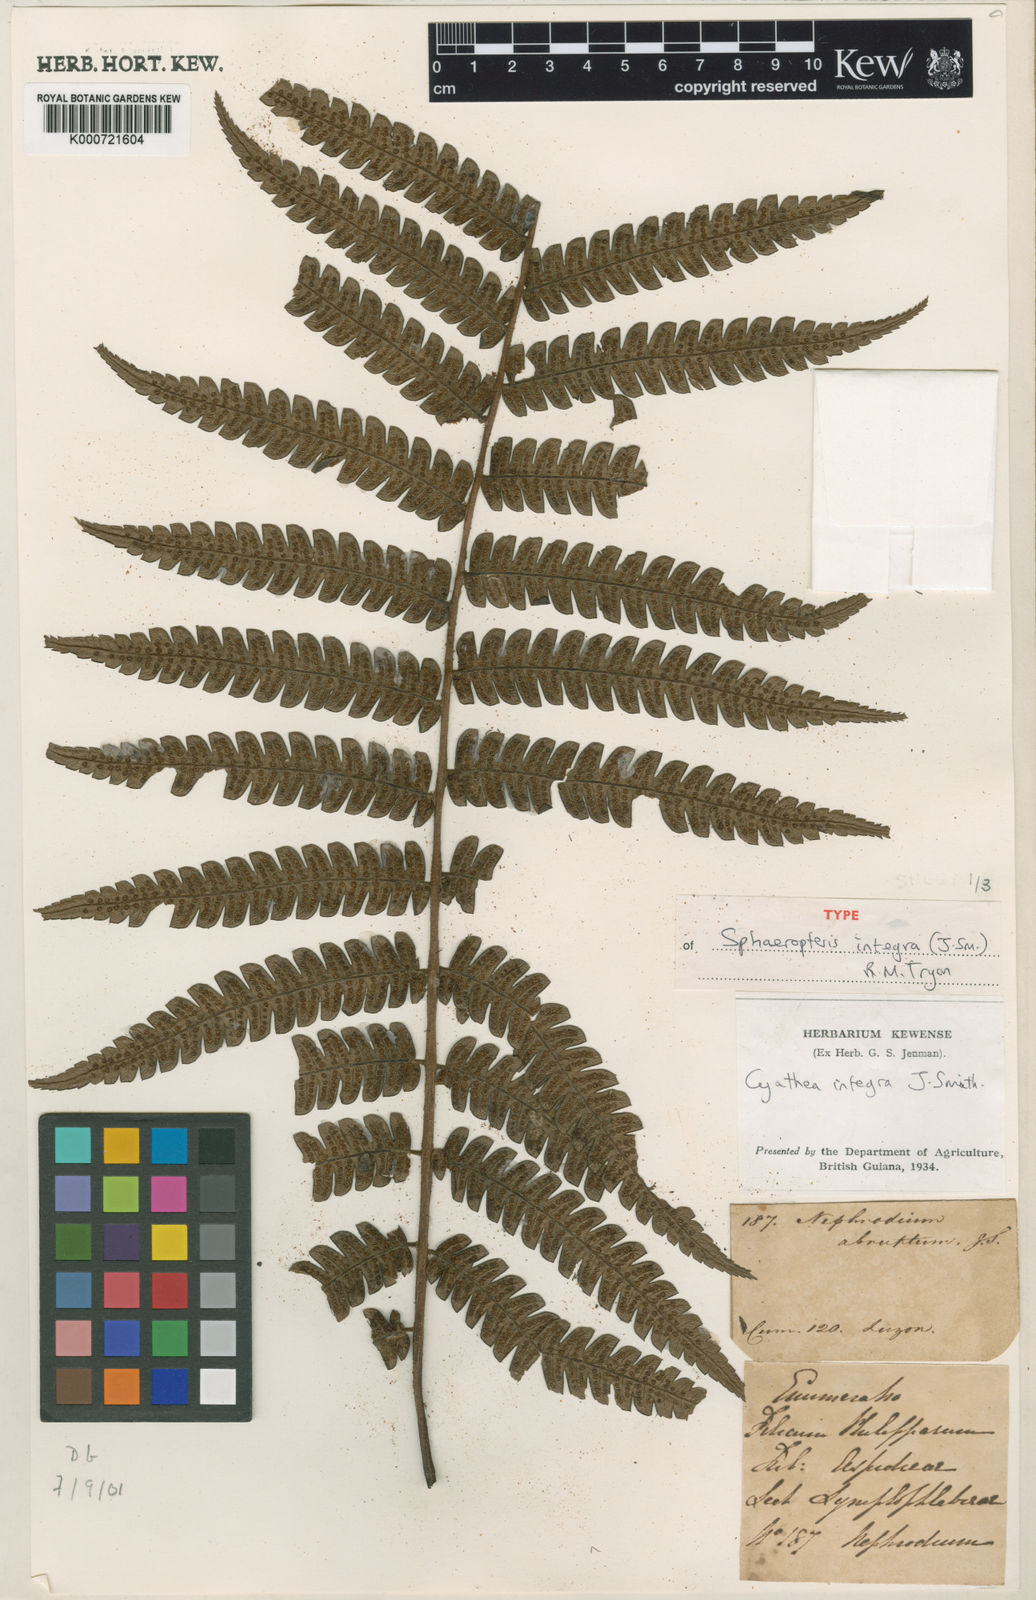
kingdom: Plantae
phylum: Tracheophyta
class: Polypodiopsida
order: Cyatheales
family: Cyatheaceae
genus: Sphaeropteris
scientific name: Sphaeropteris integra
